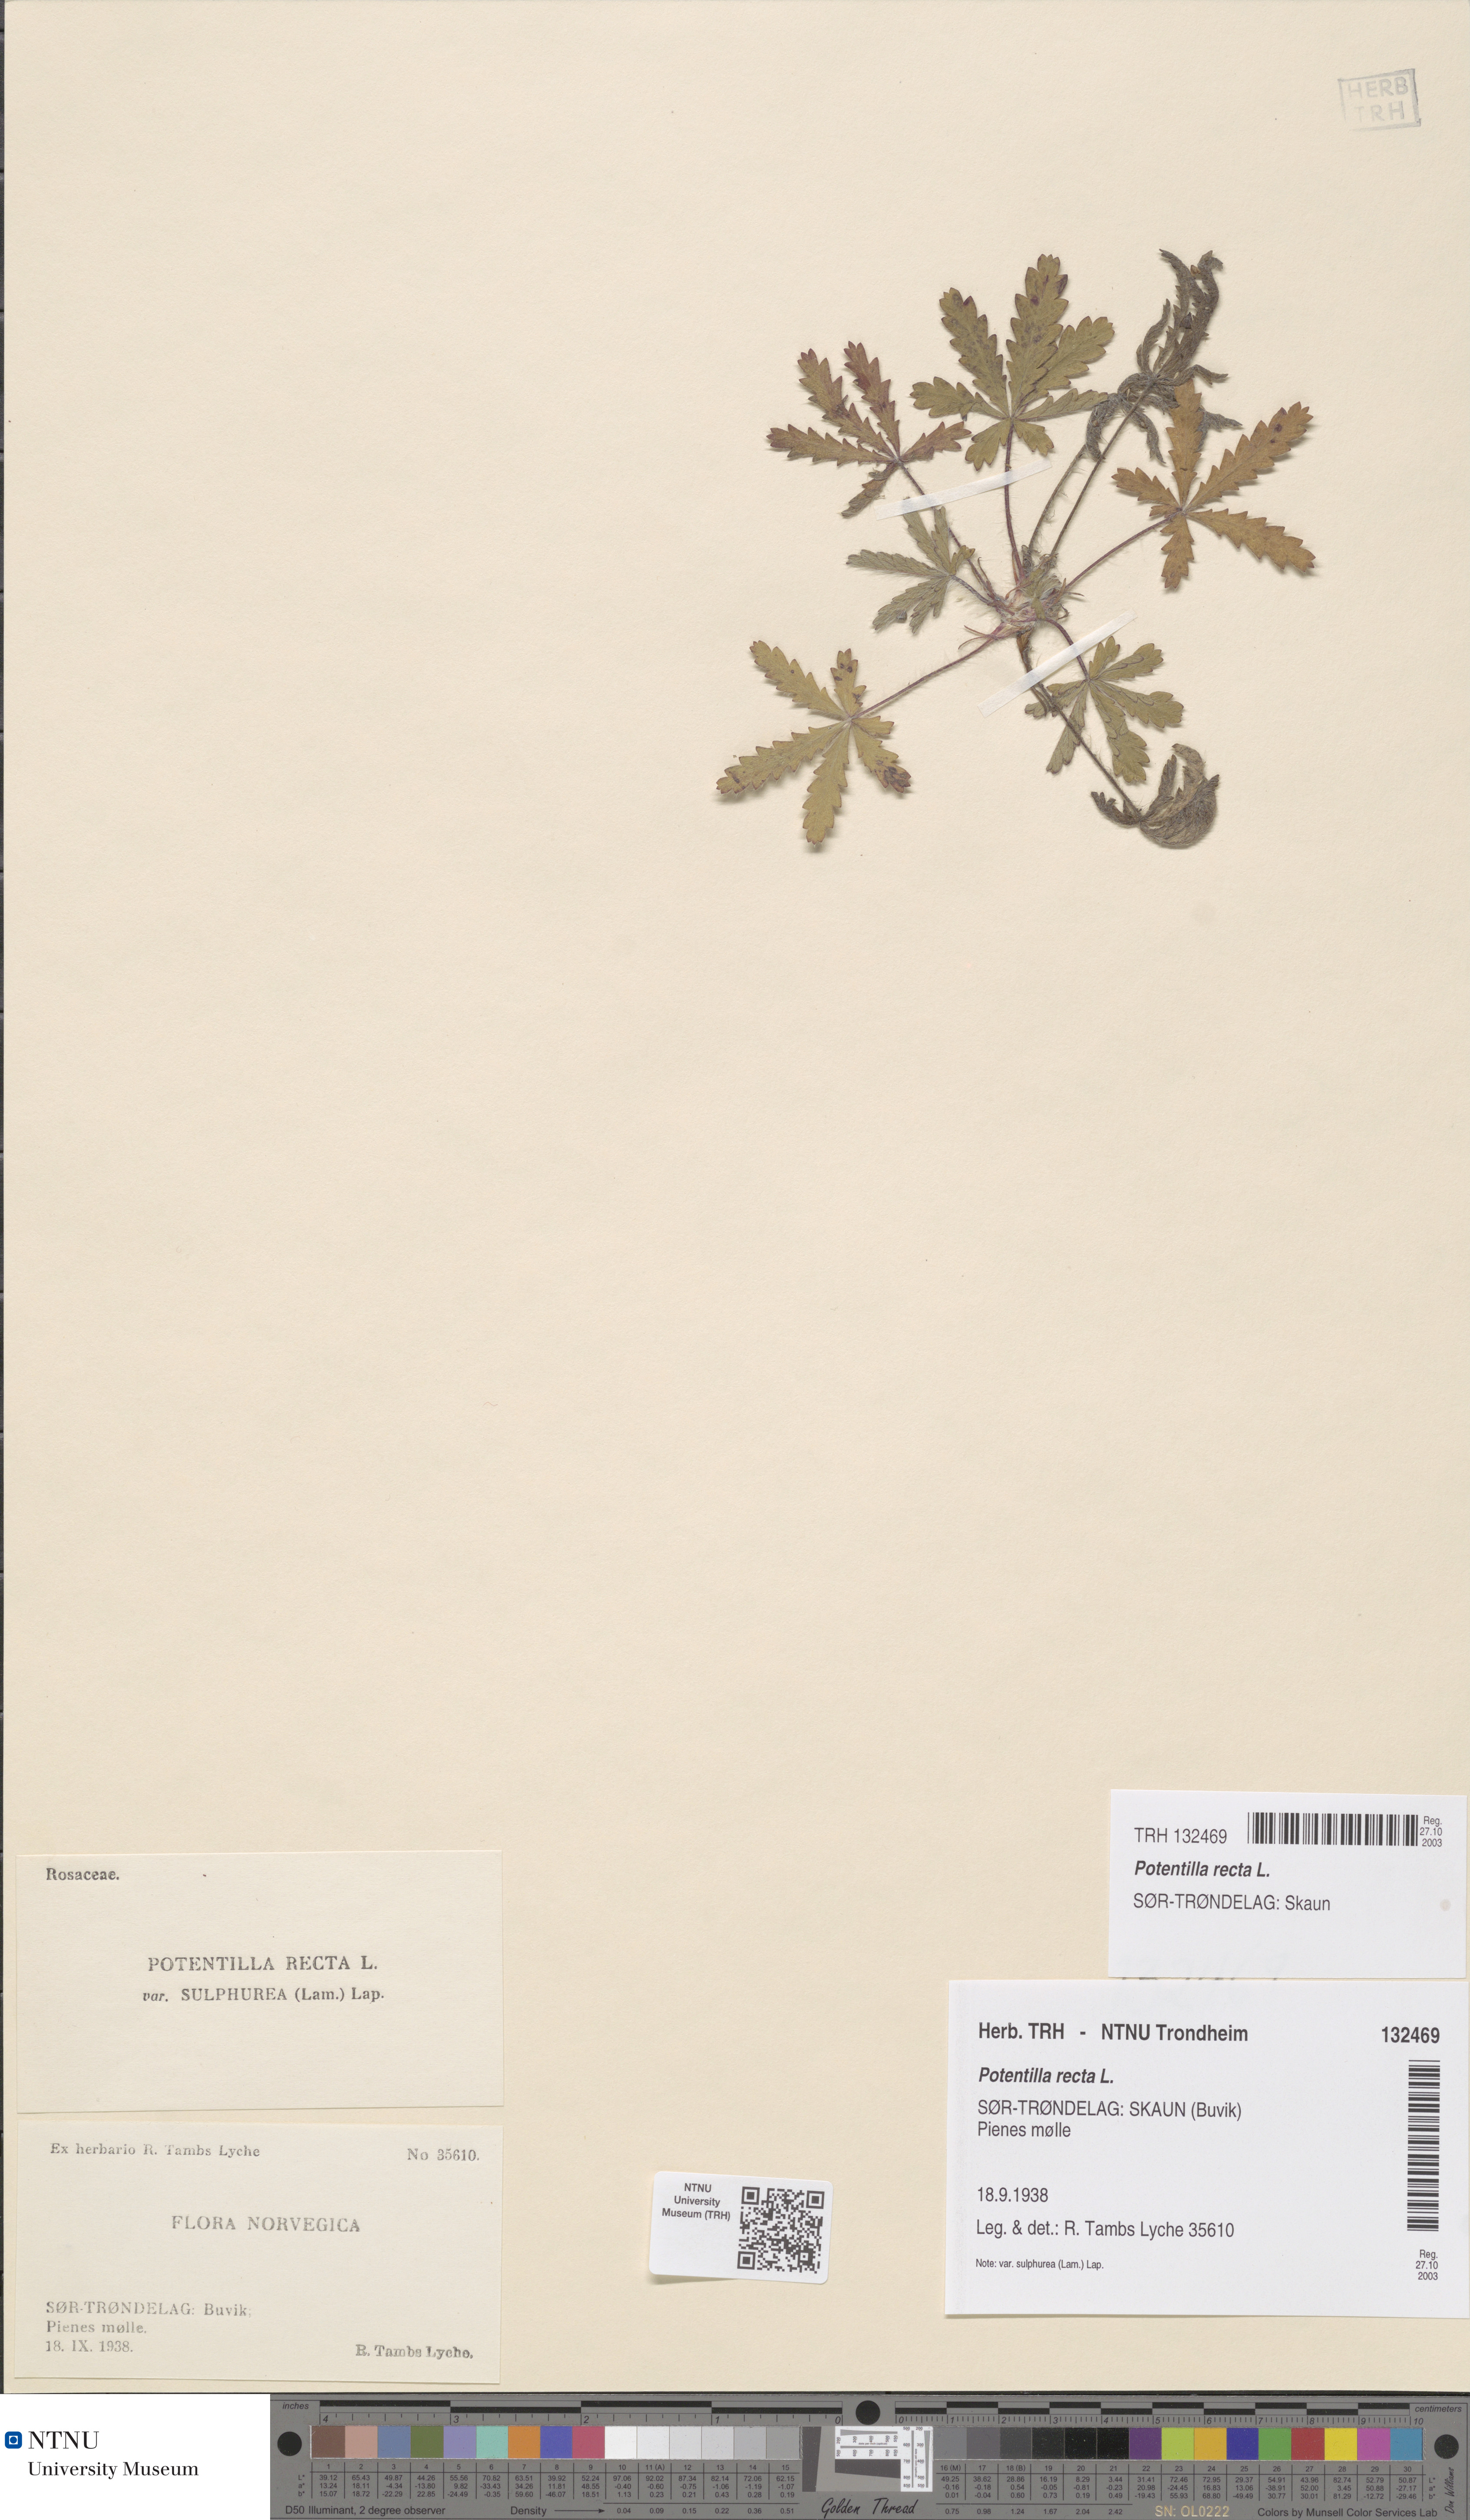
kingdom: Plantae
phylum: Tracheophyta
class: Magnoliopsida
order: Rosales
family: Rosaceae
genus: Potentilla
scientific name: Potentilla recta
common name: Sulphur cinquefoil
